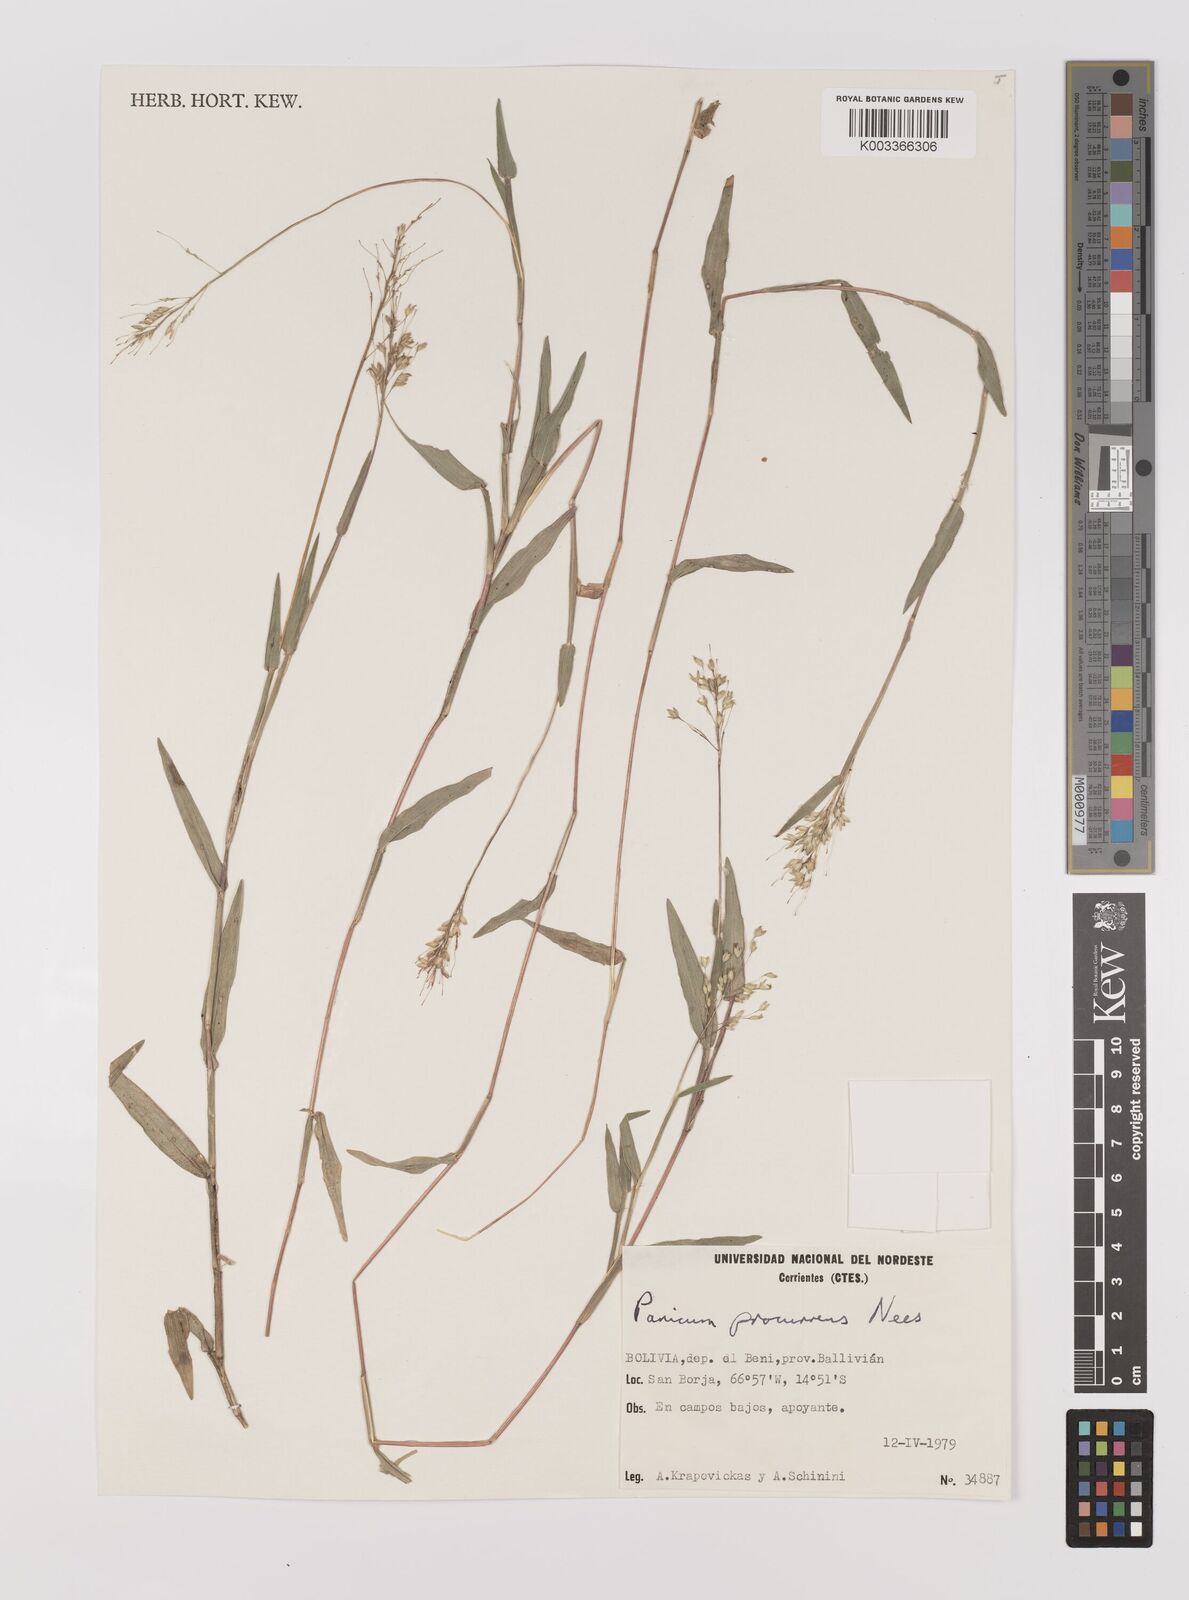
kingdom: Plantae
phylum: Tracheophyta
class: Liliopsida
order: Poales
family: Poaceae
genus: Oedochloa
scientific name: Oedochloa procurrens
